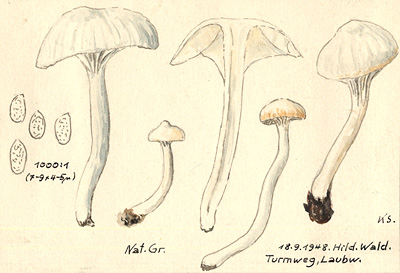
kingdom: Fungi
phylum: Basidiomycota
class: Agaricomycetes
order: Agaricales
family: Hygrophoraceae
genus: Cuphophyllus
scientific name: Cuphophyllus virgineus
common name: Snowy waxcap
